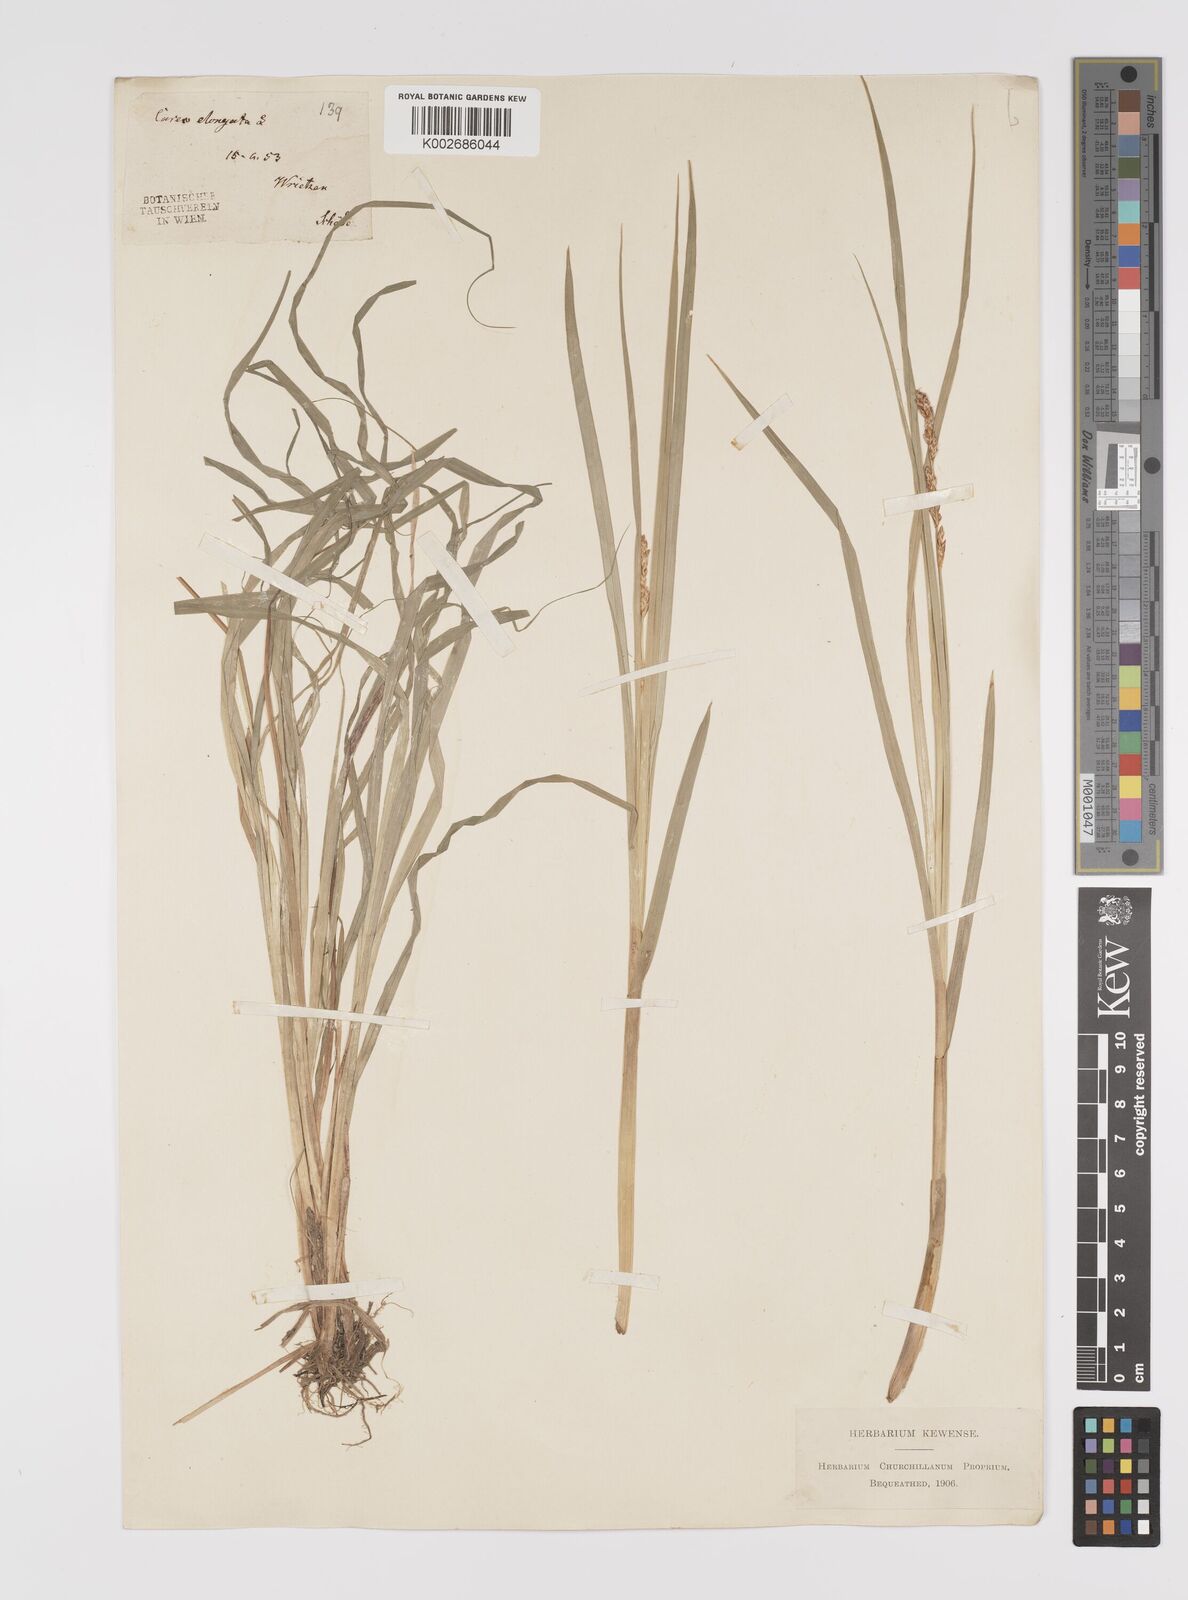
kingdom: Plantae
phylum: Tracheophyta
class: Liliopsida
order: Poales
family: Cyperaceae
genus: Carex
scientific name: Carex elongata
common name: Elongated sedge
